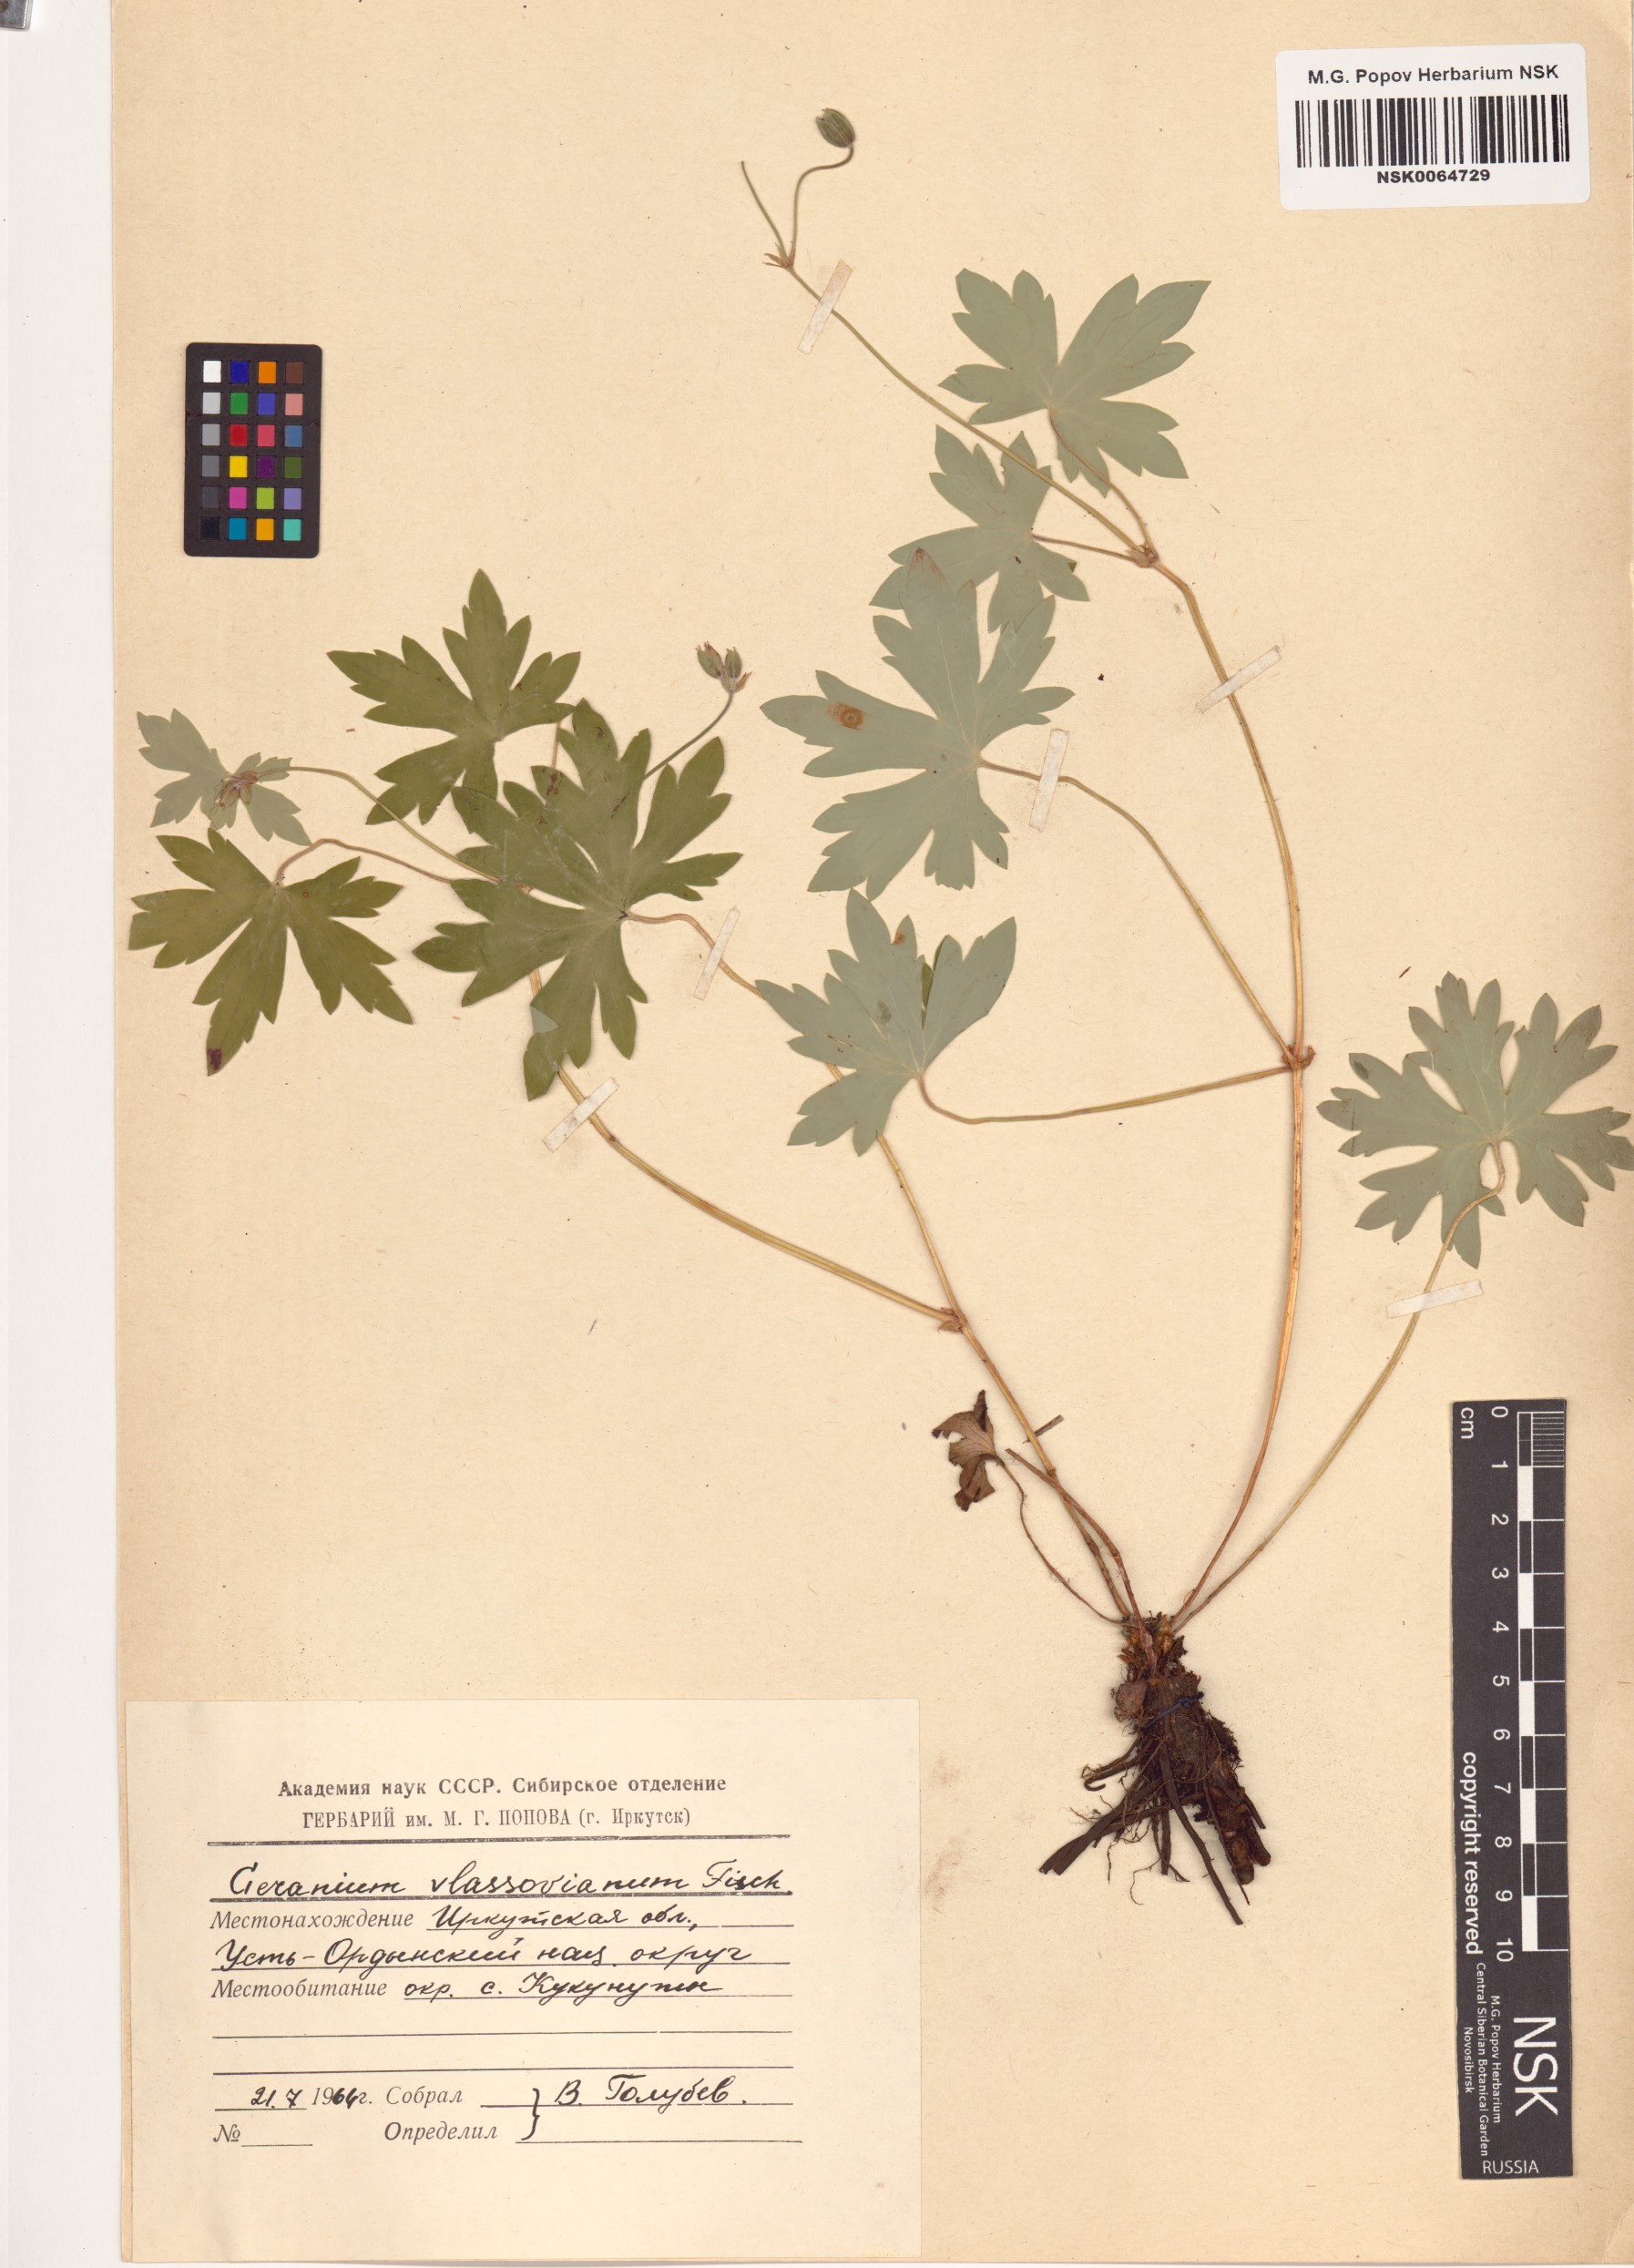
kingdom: Plantae
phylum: Tracheophyta
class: Magnoliopsida
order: Geraniales
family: Geraniaceae
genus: Geranium
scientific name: Geranium wlassovianum
